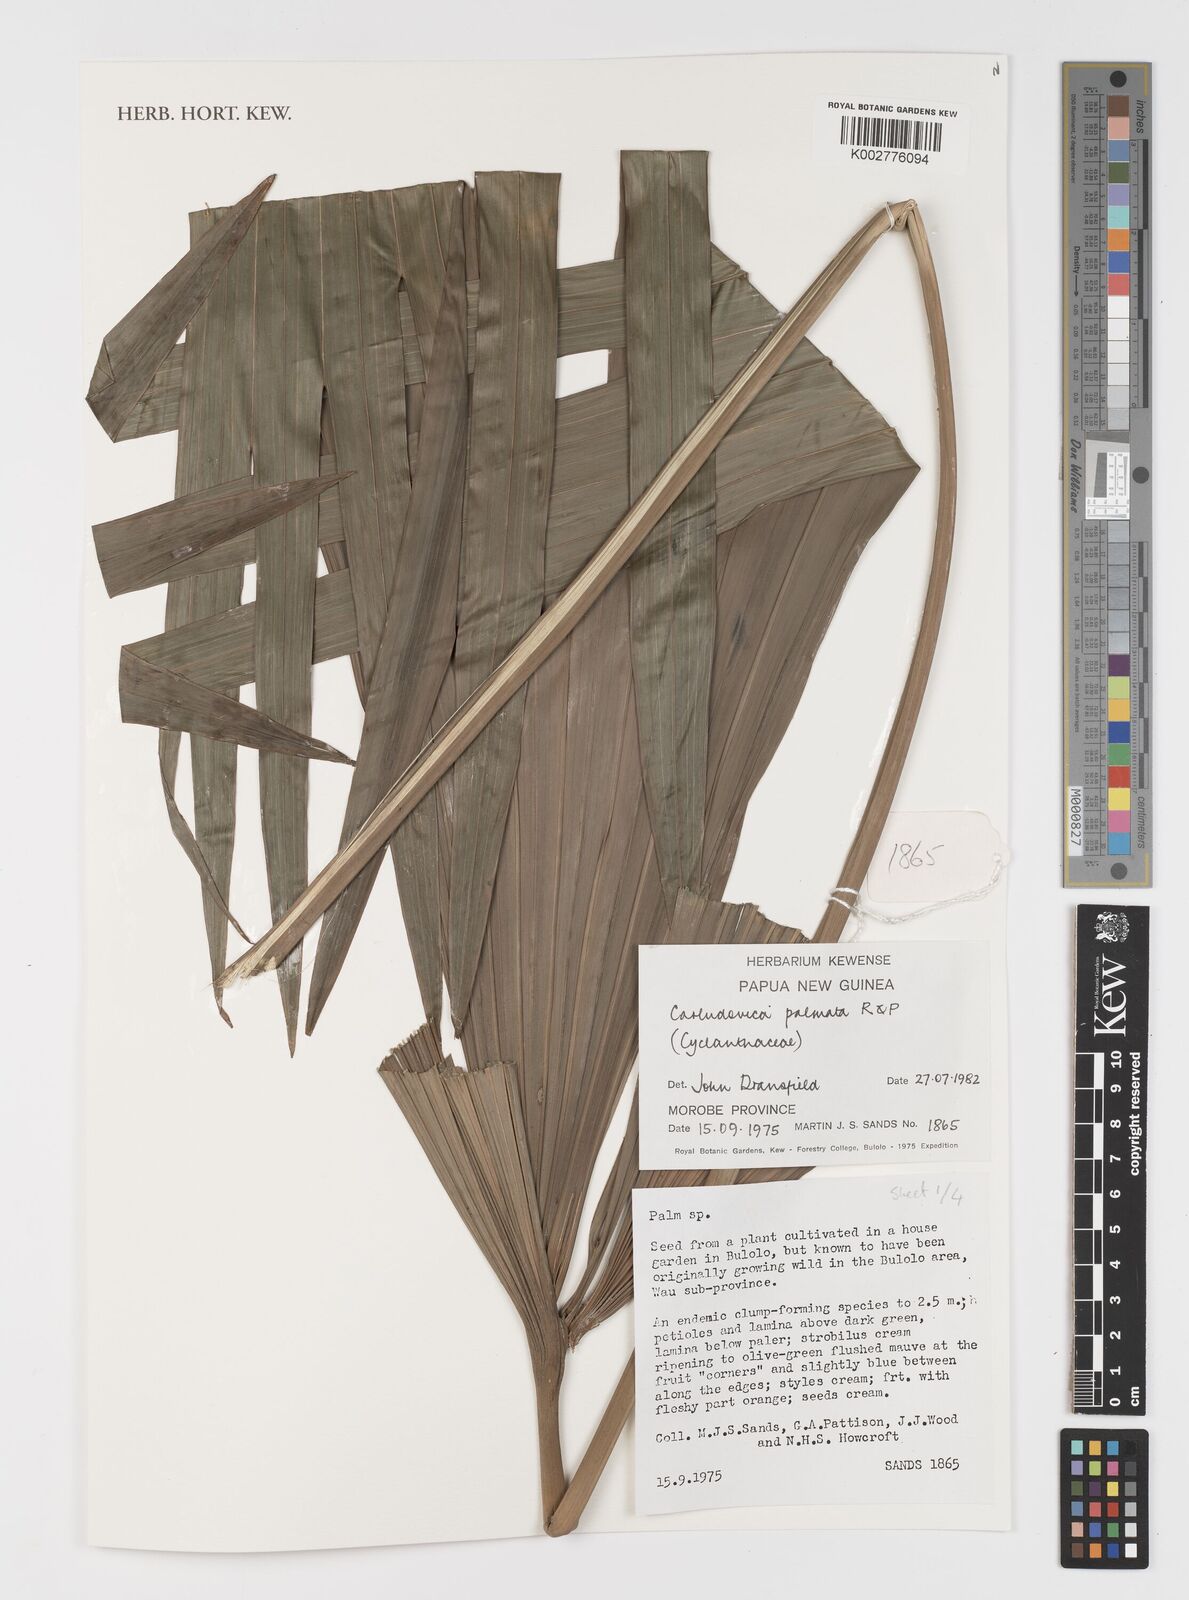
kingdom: Plantae
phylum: Tracheophyta
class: Liliopsida
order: Pandanales
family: Cyclanthaceae
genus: Carludovica
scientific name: Carludovica palmata
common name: Panama hat plant
